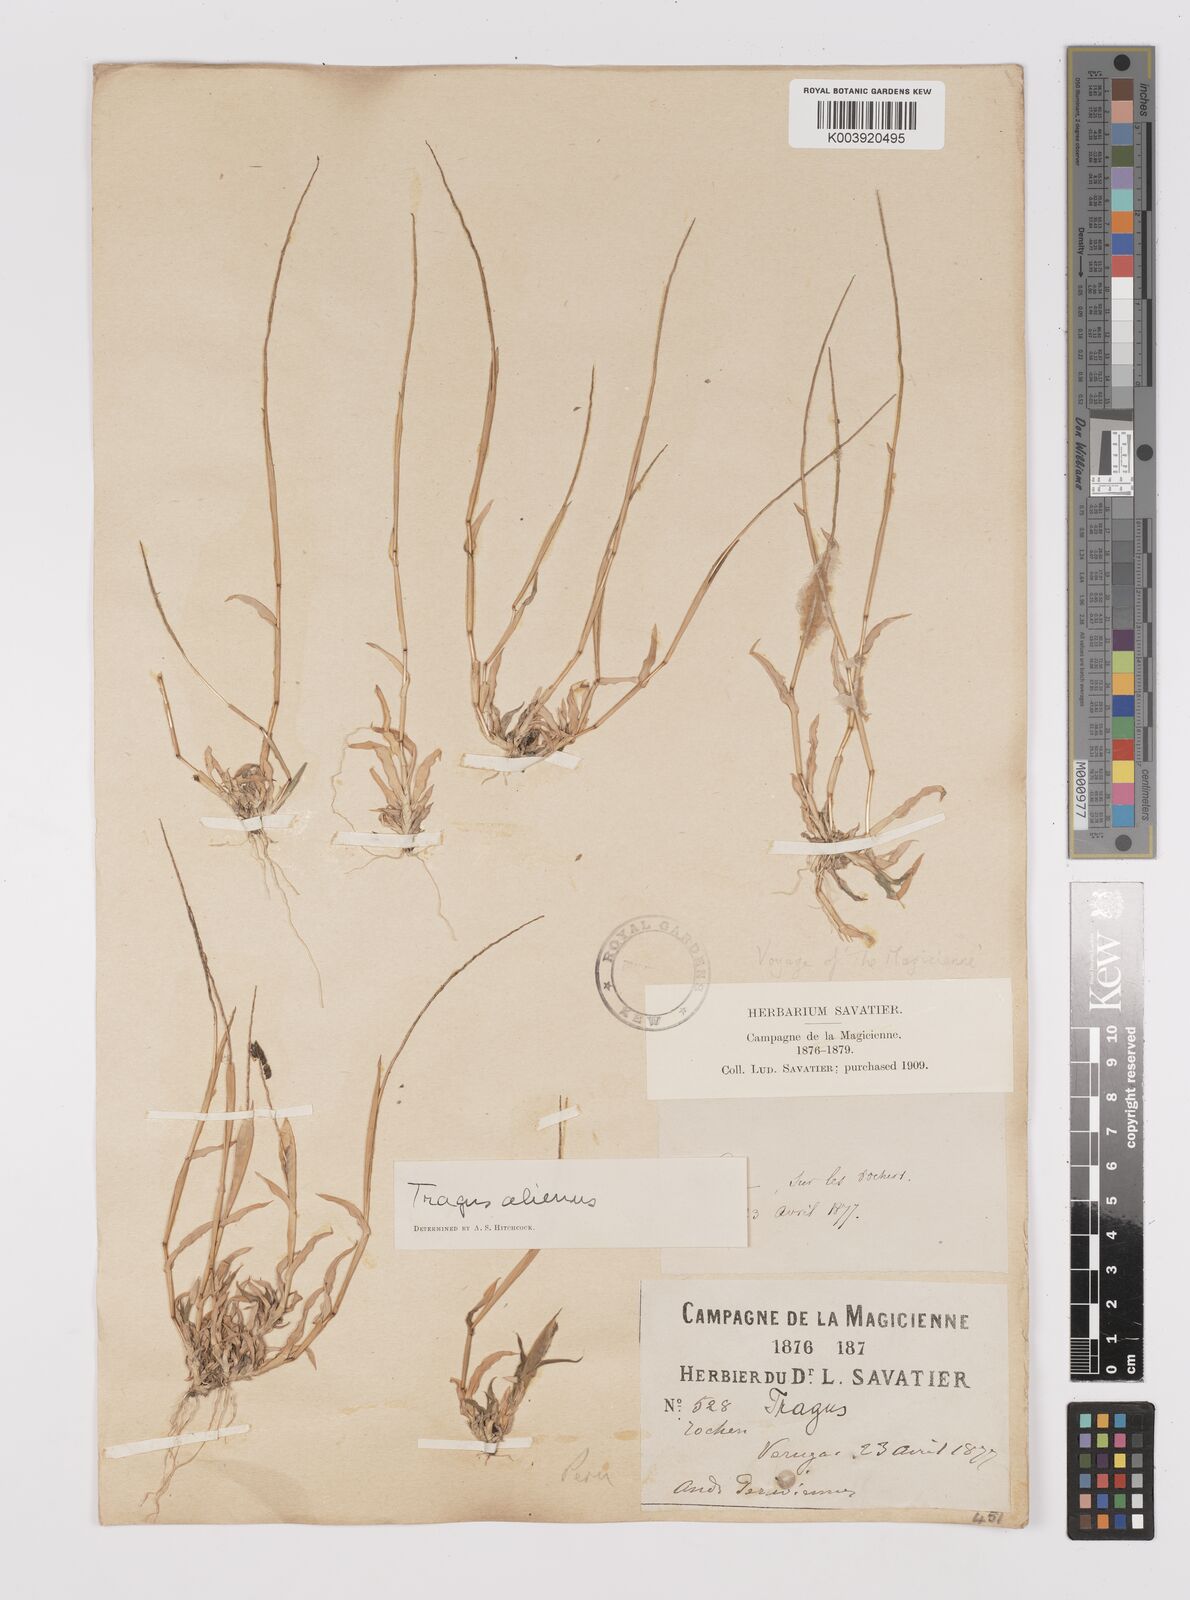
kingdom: Plantae
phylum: Tracheophyta
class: Liliopsida
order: Poales
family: Poaceae
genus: Tragus
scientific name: Tragus berteronianus
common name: African bur-grass
